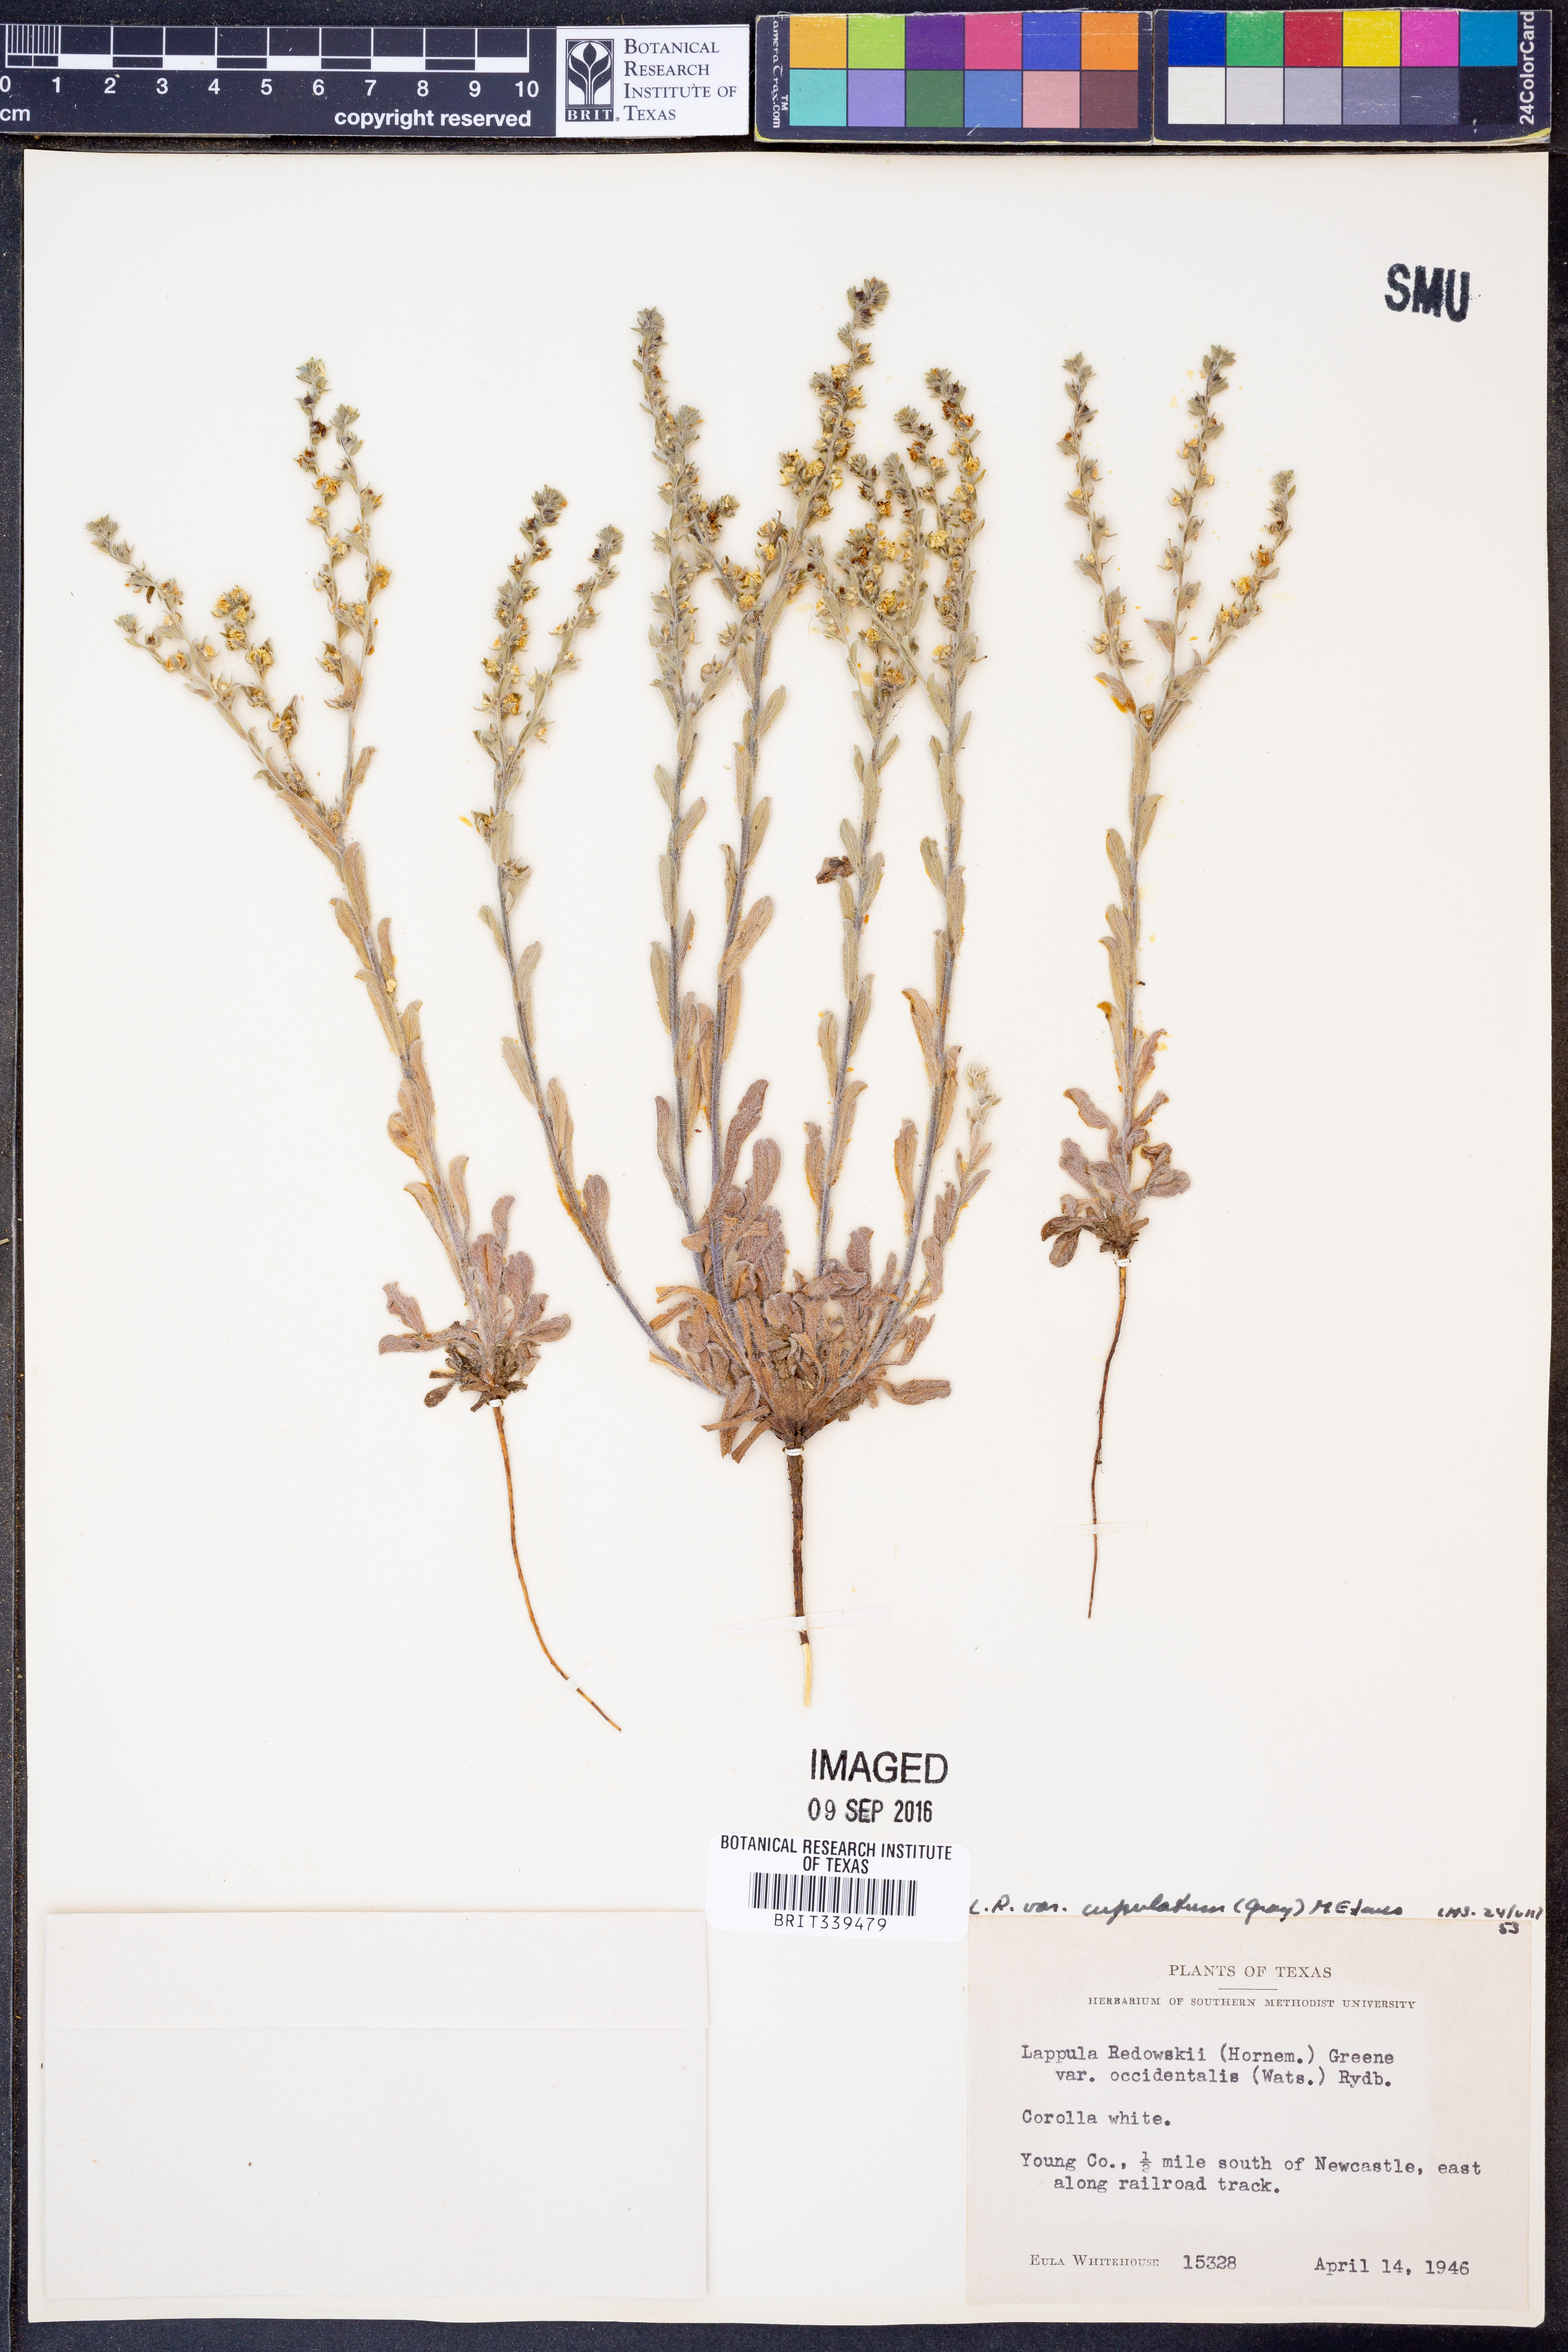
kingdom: Plantae
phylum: Tracheophyta
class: Magnoliopsida
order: Boraginales
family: Boraginaceae
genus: Lappula
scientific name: Lappula occidentalis
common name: Western stickseed
